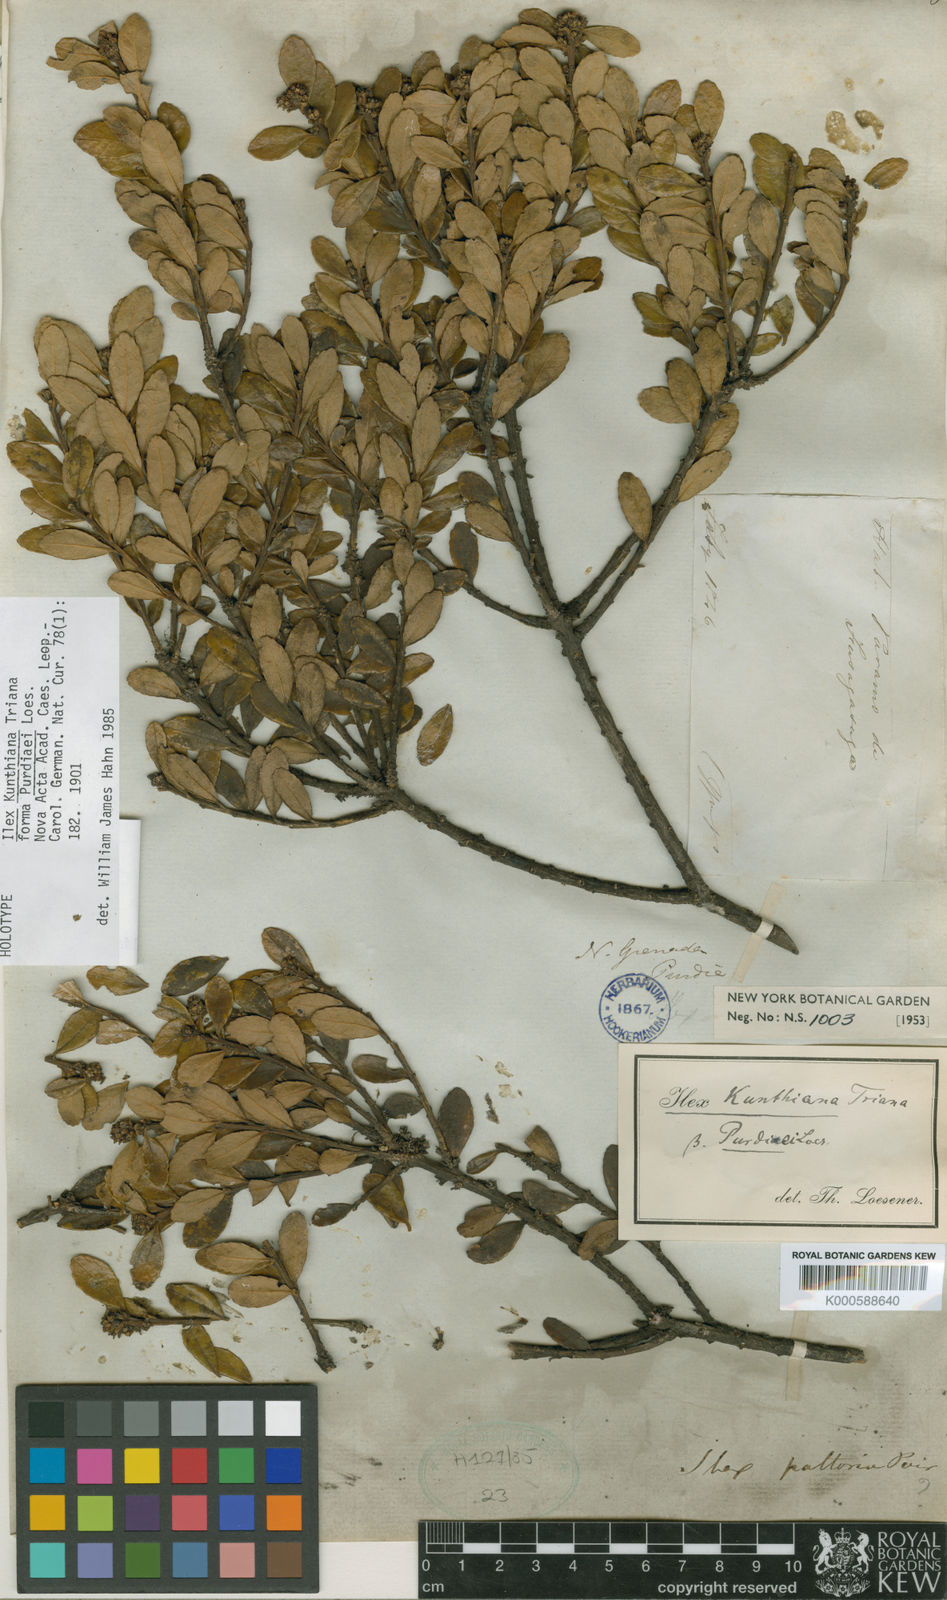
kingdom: Plantae
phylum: Tracheophyta
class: Magnoliopsida
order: Aquifoliales
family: Aquifoliaceae
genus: Ilex
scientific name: Ilex kunthiana
